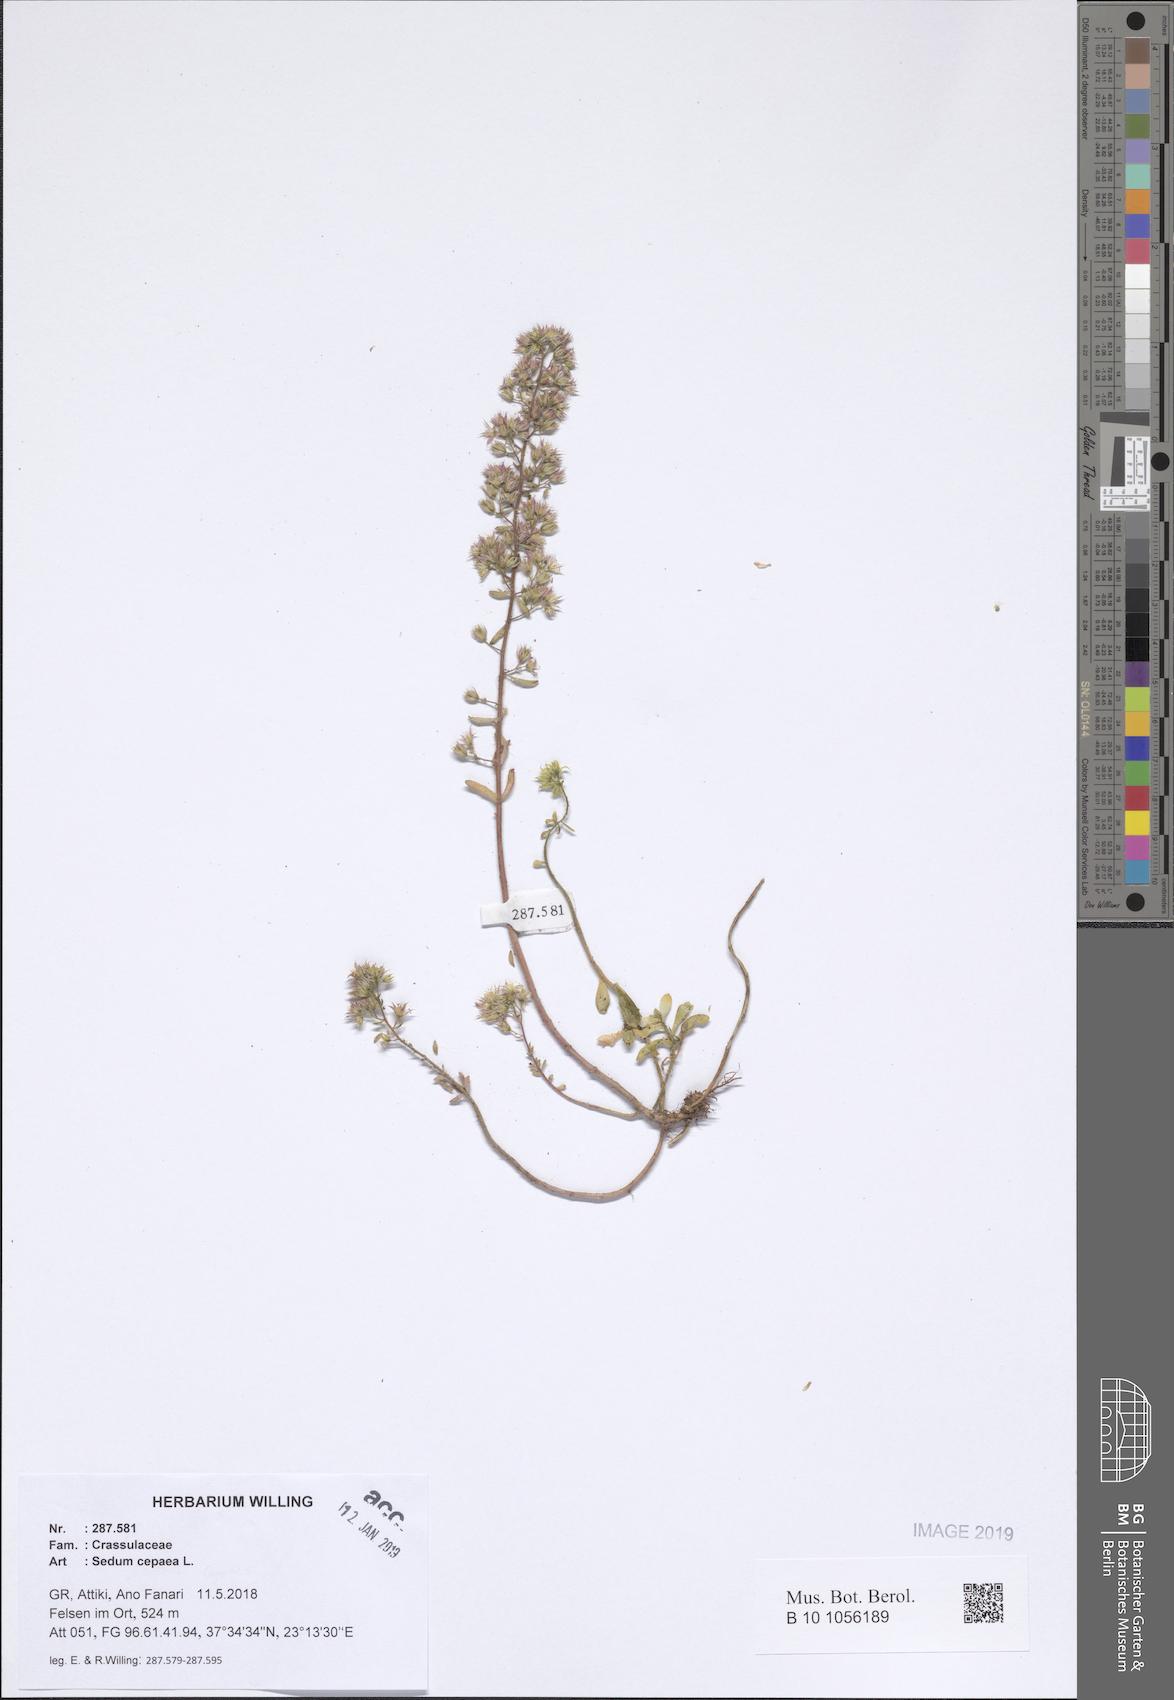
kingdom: Plantae
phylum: Tracheophyta
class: Magnoliopsida
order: Saxifragales
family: Crassulaceae
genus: Sedum
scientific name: Sedum cepaea
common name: Pink stonecrop
